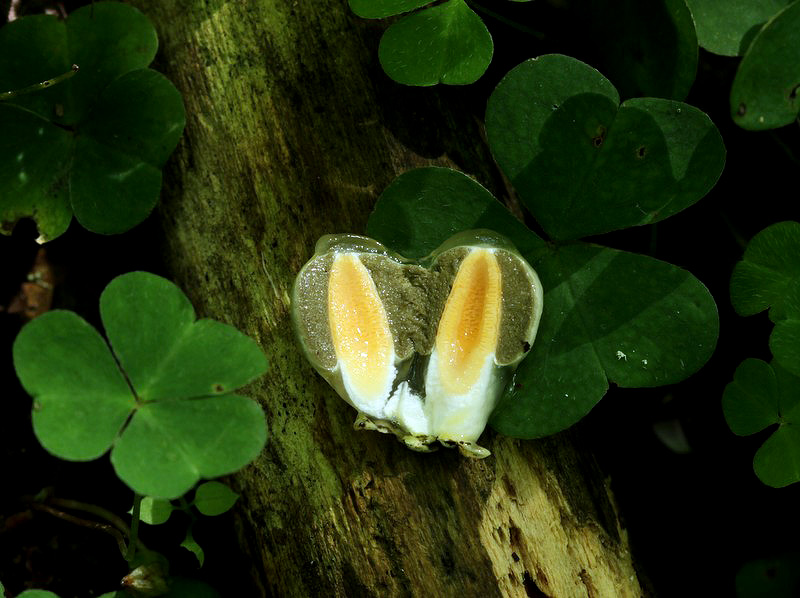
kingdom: Fungi
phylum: Basidiomycota
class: Agaricomycetes
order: Phallales
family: Phallaceae
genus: Mutinus
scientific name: Mutinus caninus
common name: hunde-stinksvamp
